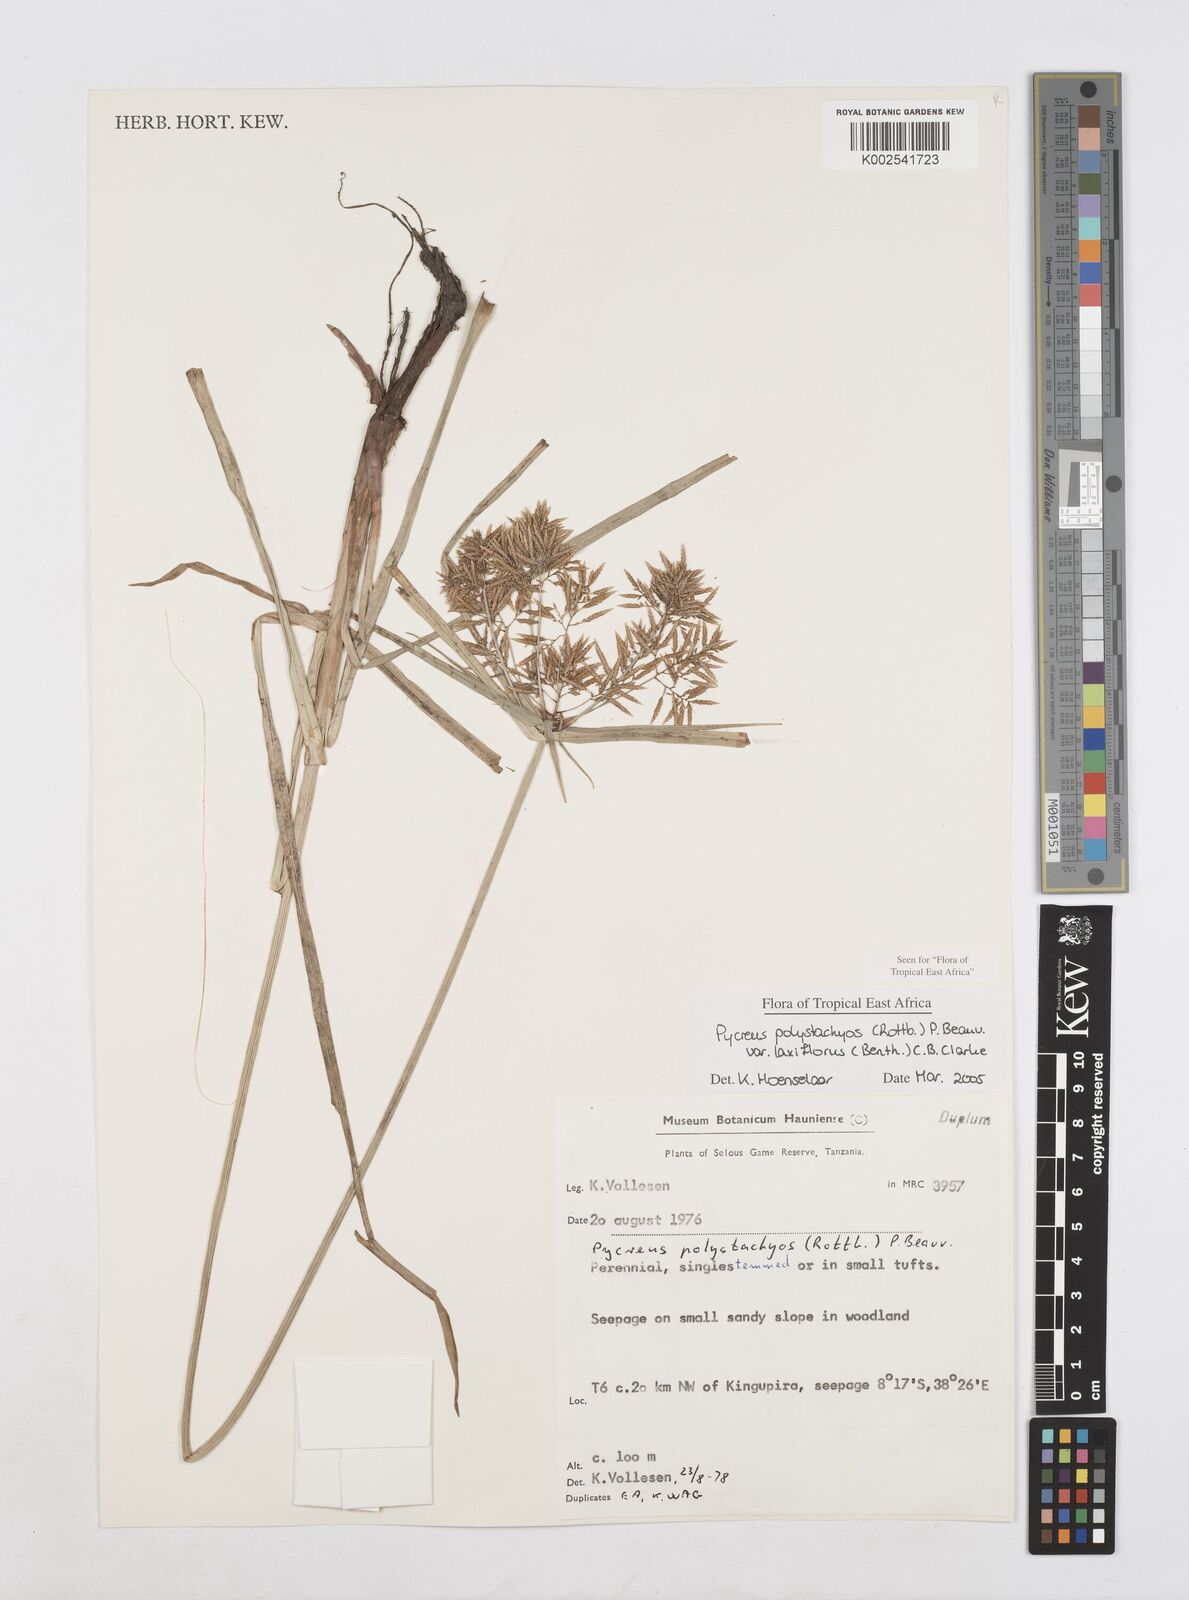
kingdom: Plantae
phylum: Tracheophyta
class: Liliopsida
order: Poales
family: Cyperaceae
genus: Cyperus
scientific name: Cyperus polystachyos
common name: Bunchy flat sedge
